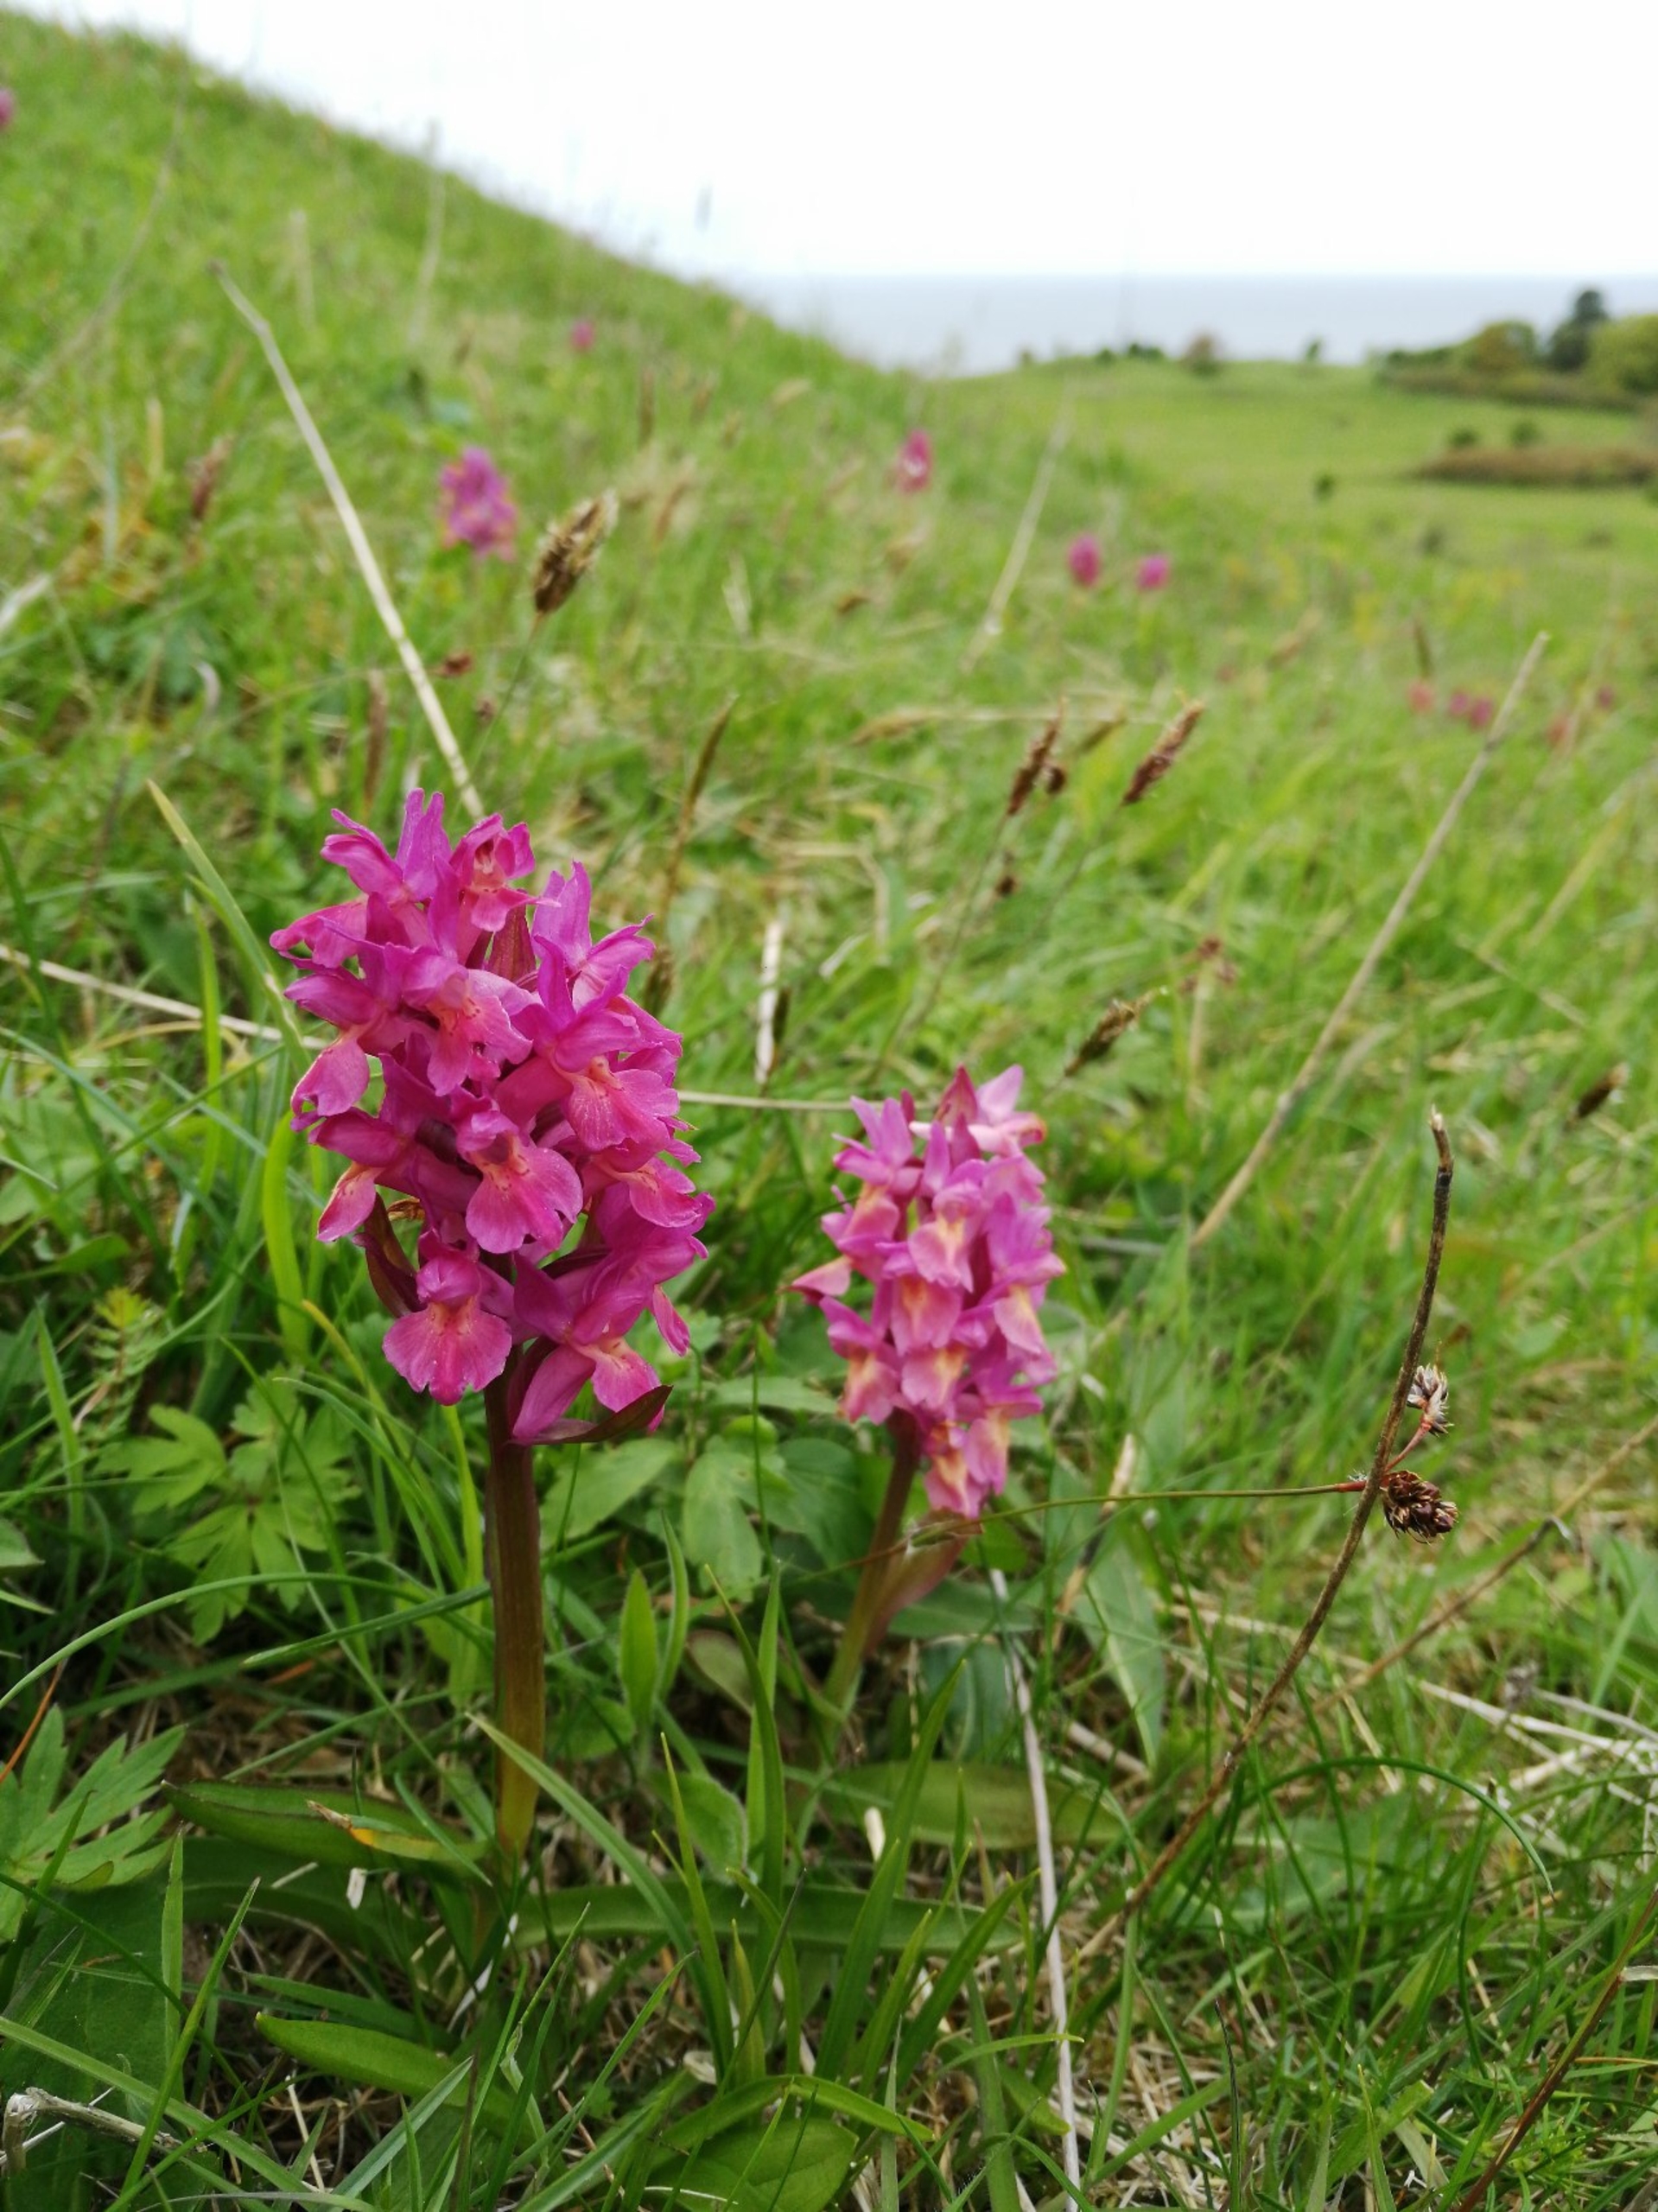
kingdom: Plantae
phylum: Tracheophyta
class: Liliopsida
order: Asparagales
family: Orchidaceae
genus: Dactylorhiza
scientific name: Dactylorhiza sambucina
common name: Hylde-gøgeurt
